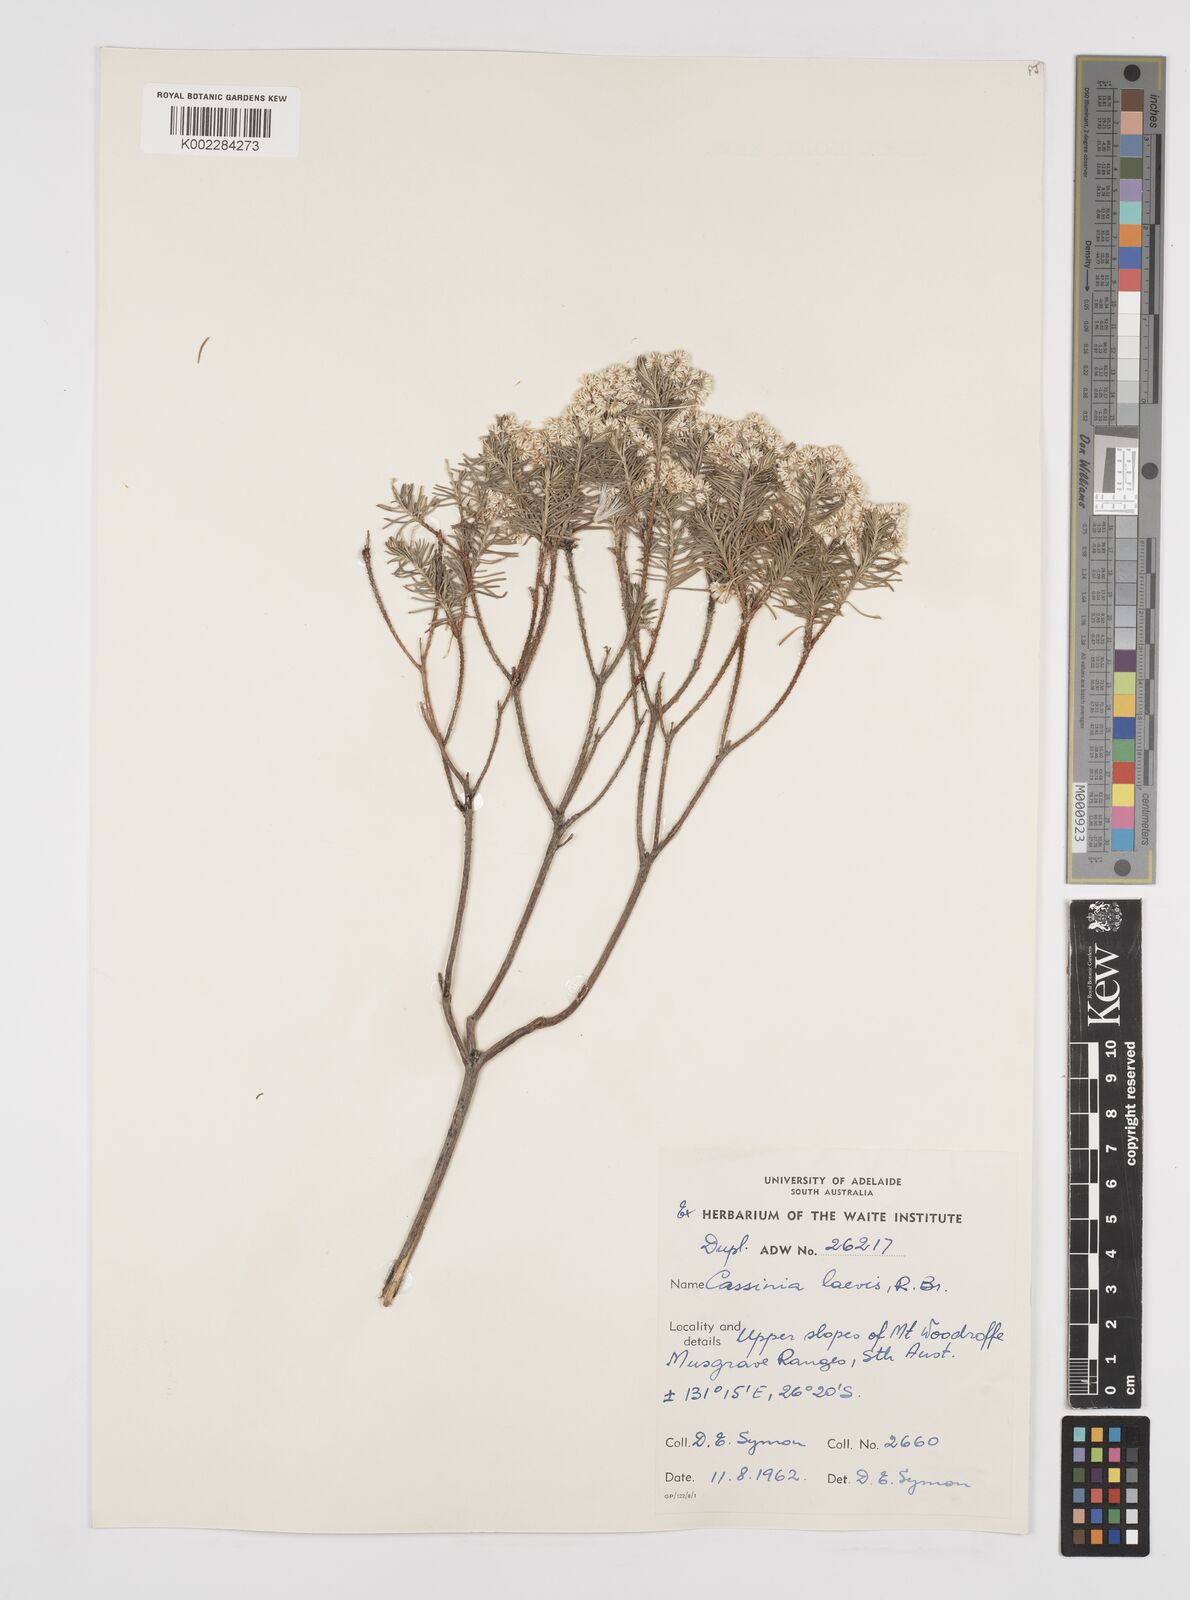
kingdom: Plantae
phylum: Tracheophyta
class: Magnoliopsida
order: Asterales
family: Asteraceae
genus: Cassinia
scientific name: Cassinia laevis
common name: Coughbush
